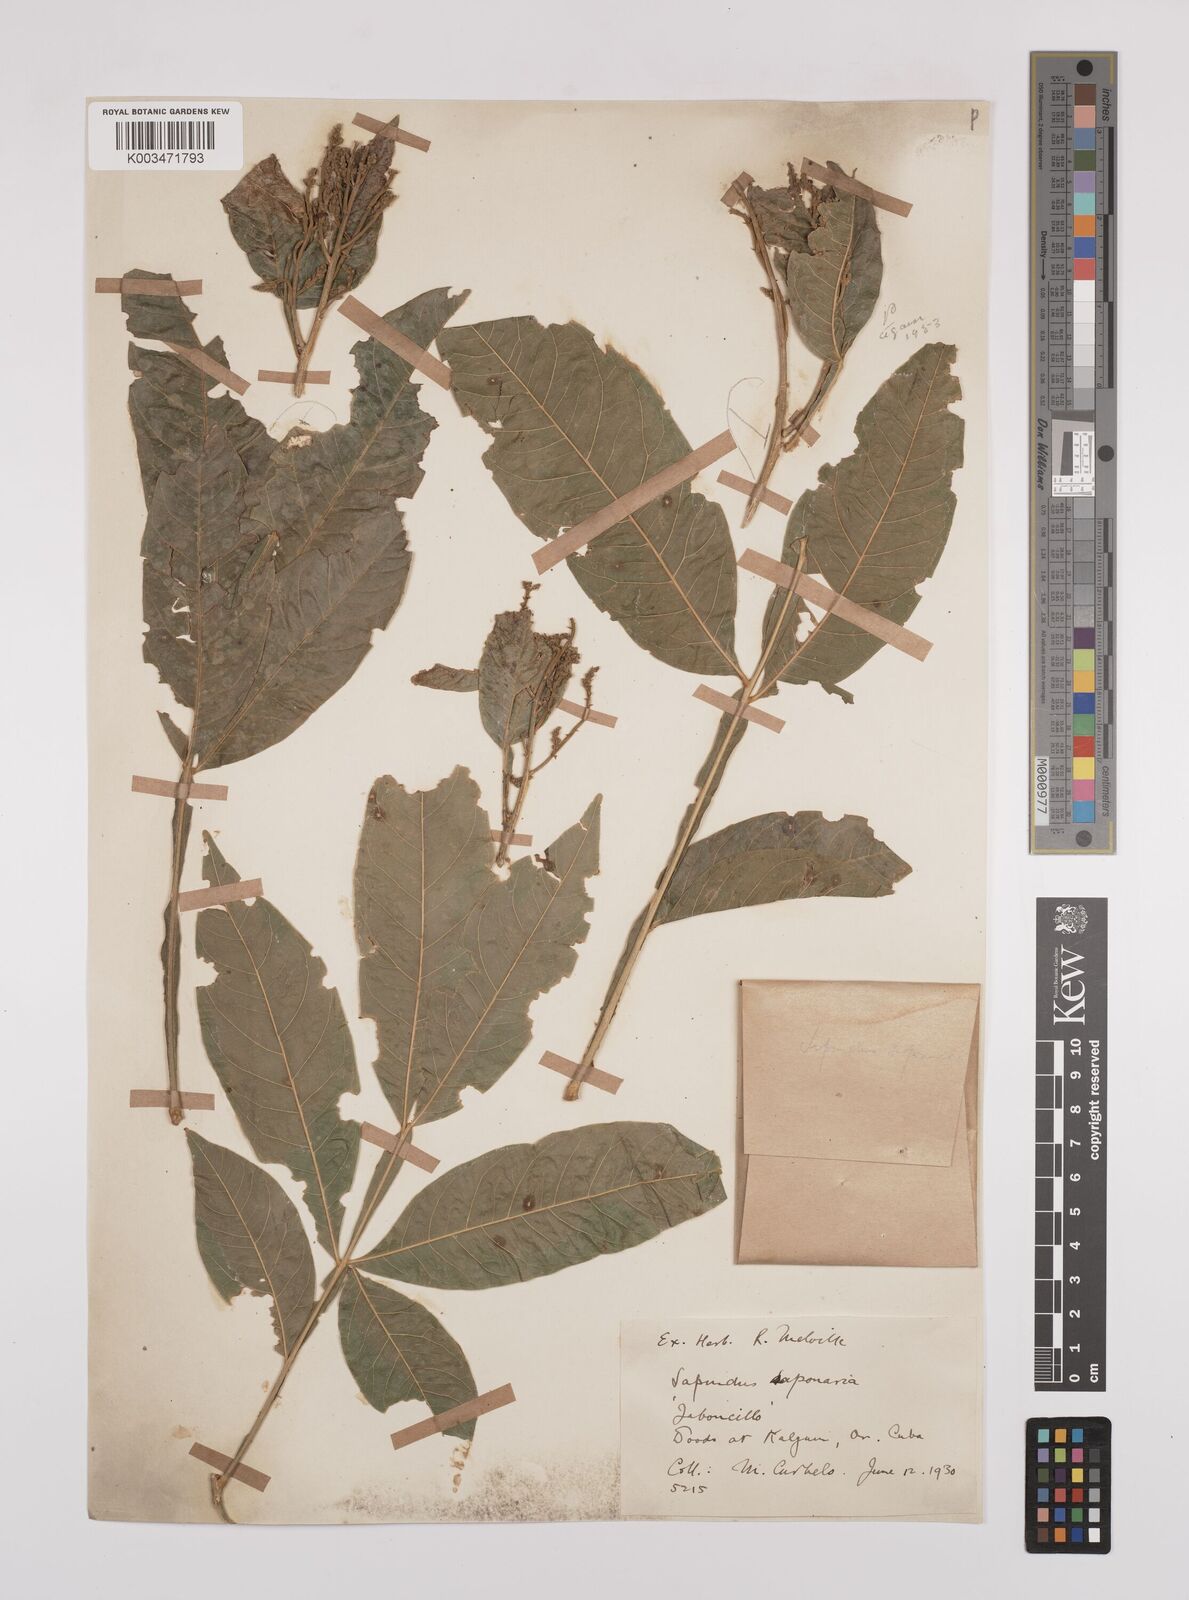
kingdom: Plantae
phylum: Tracheophyta
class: Magnoliopsida
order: Sapindales
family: Sapindaceae
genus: Sapindus
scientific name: Sapindus saponaria
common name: Wingleaf soapberry
